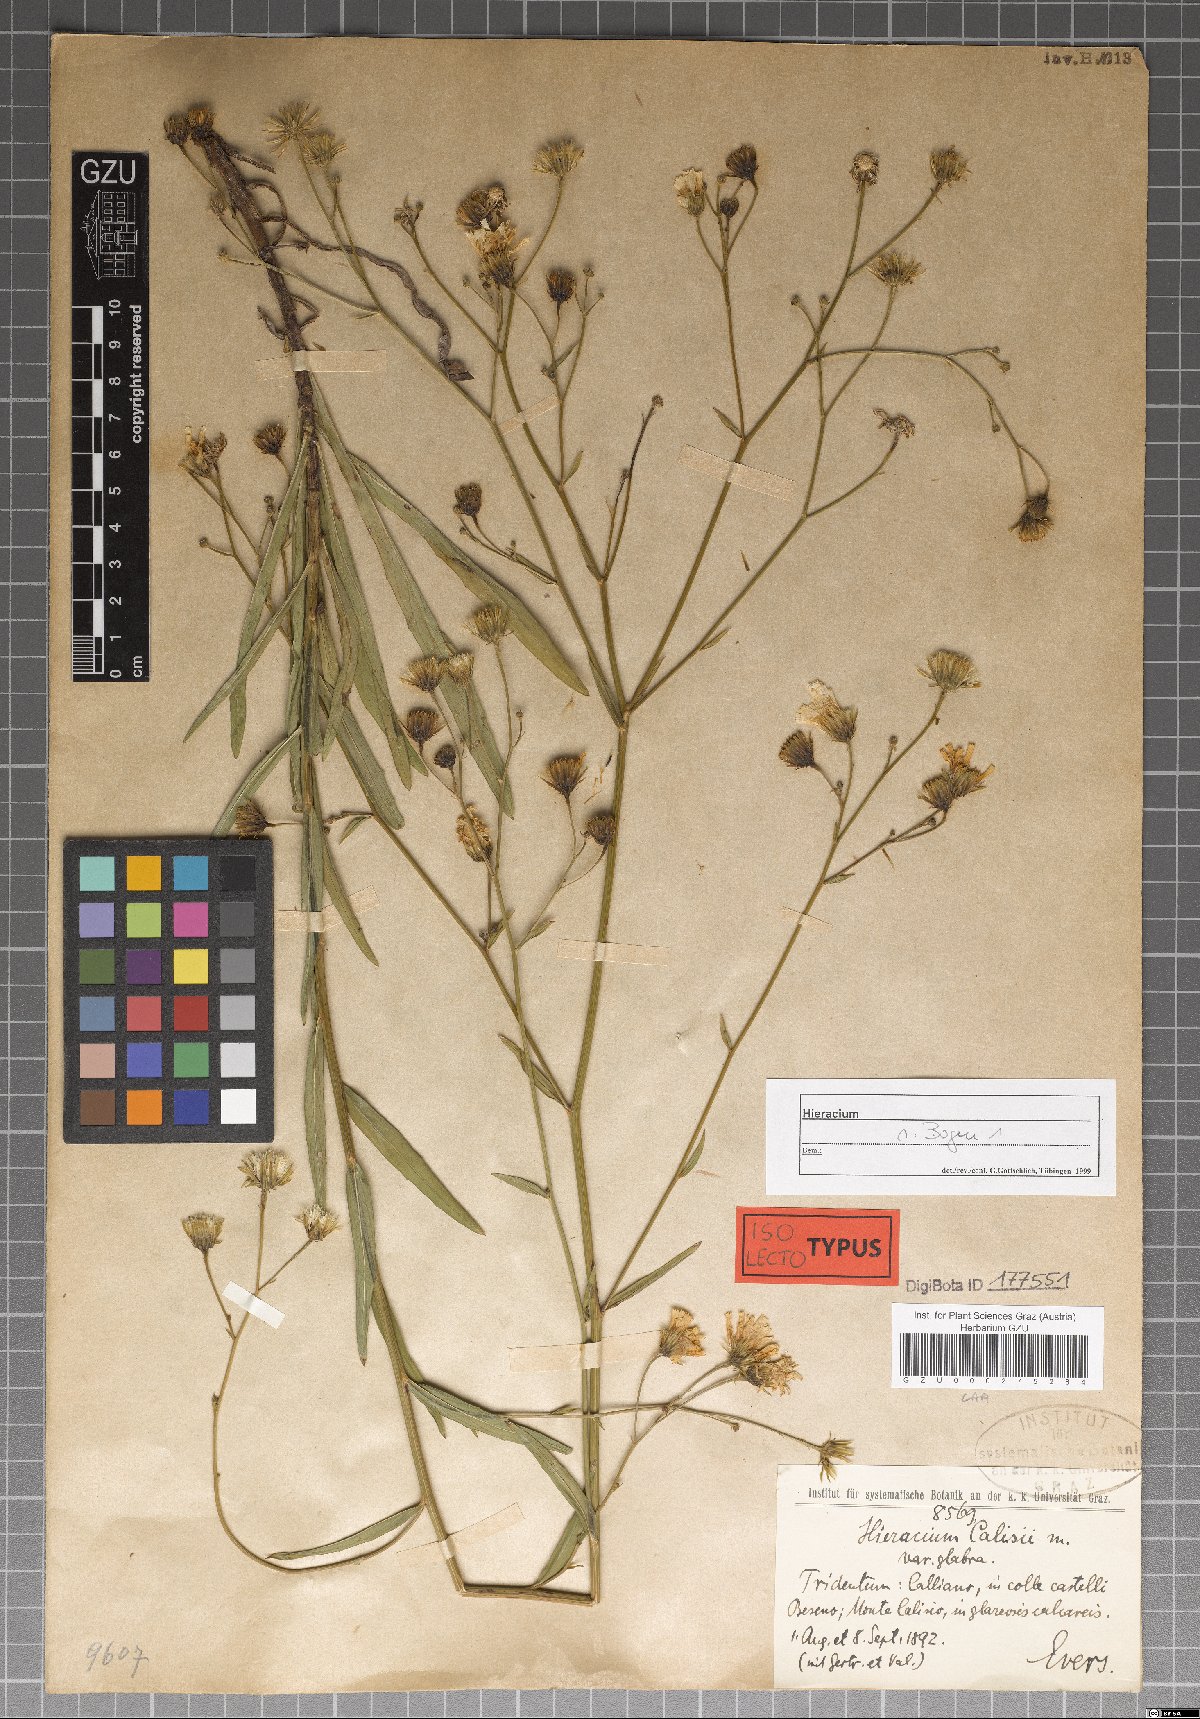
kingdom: Plantae
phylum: Tracheophyta
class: Magnoliopsida
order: Asterales
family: Asteraceae
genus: Hieracium
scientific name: Hieracium leiocephalum
